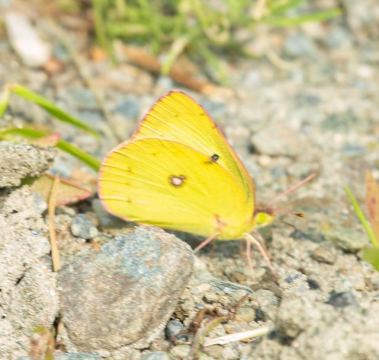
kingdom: Animalia
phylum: Arthropoda
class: Insecta
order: Lepidoptera
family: Pieridae
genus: Colias
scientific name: Colias philodice
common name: Clouded Sulphur
